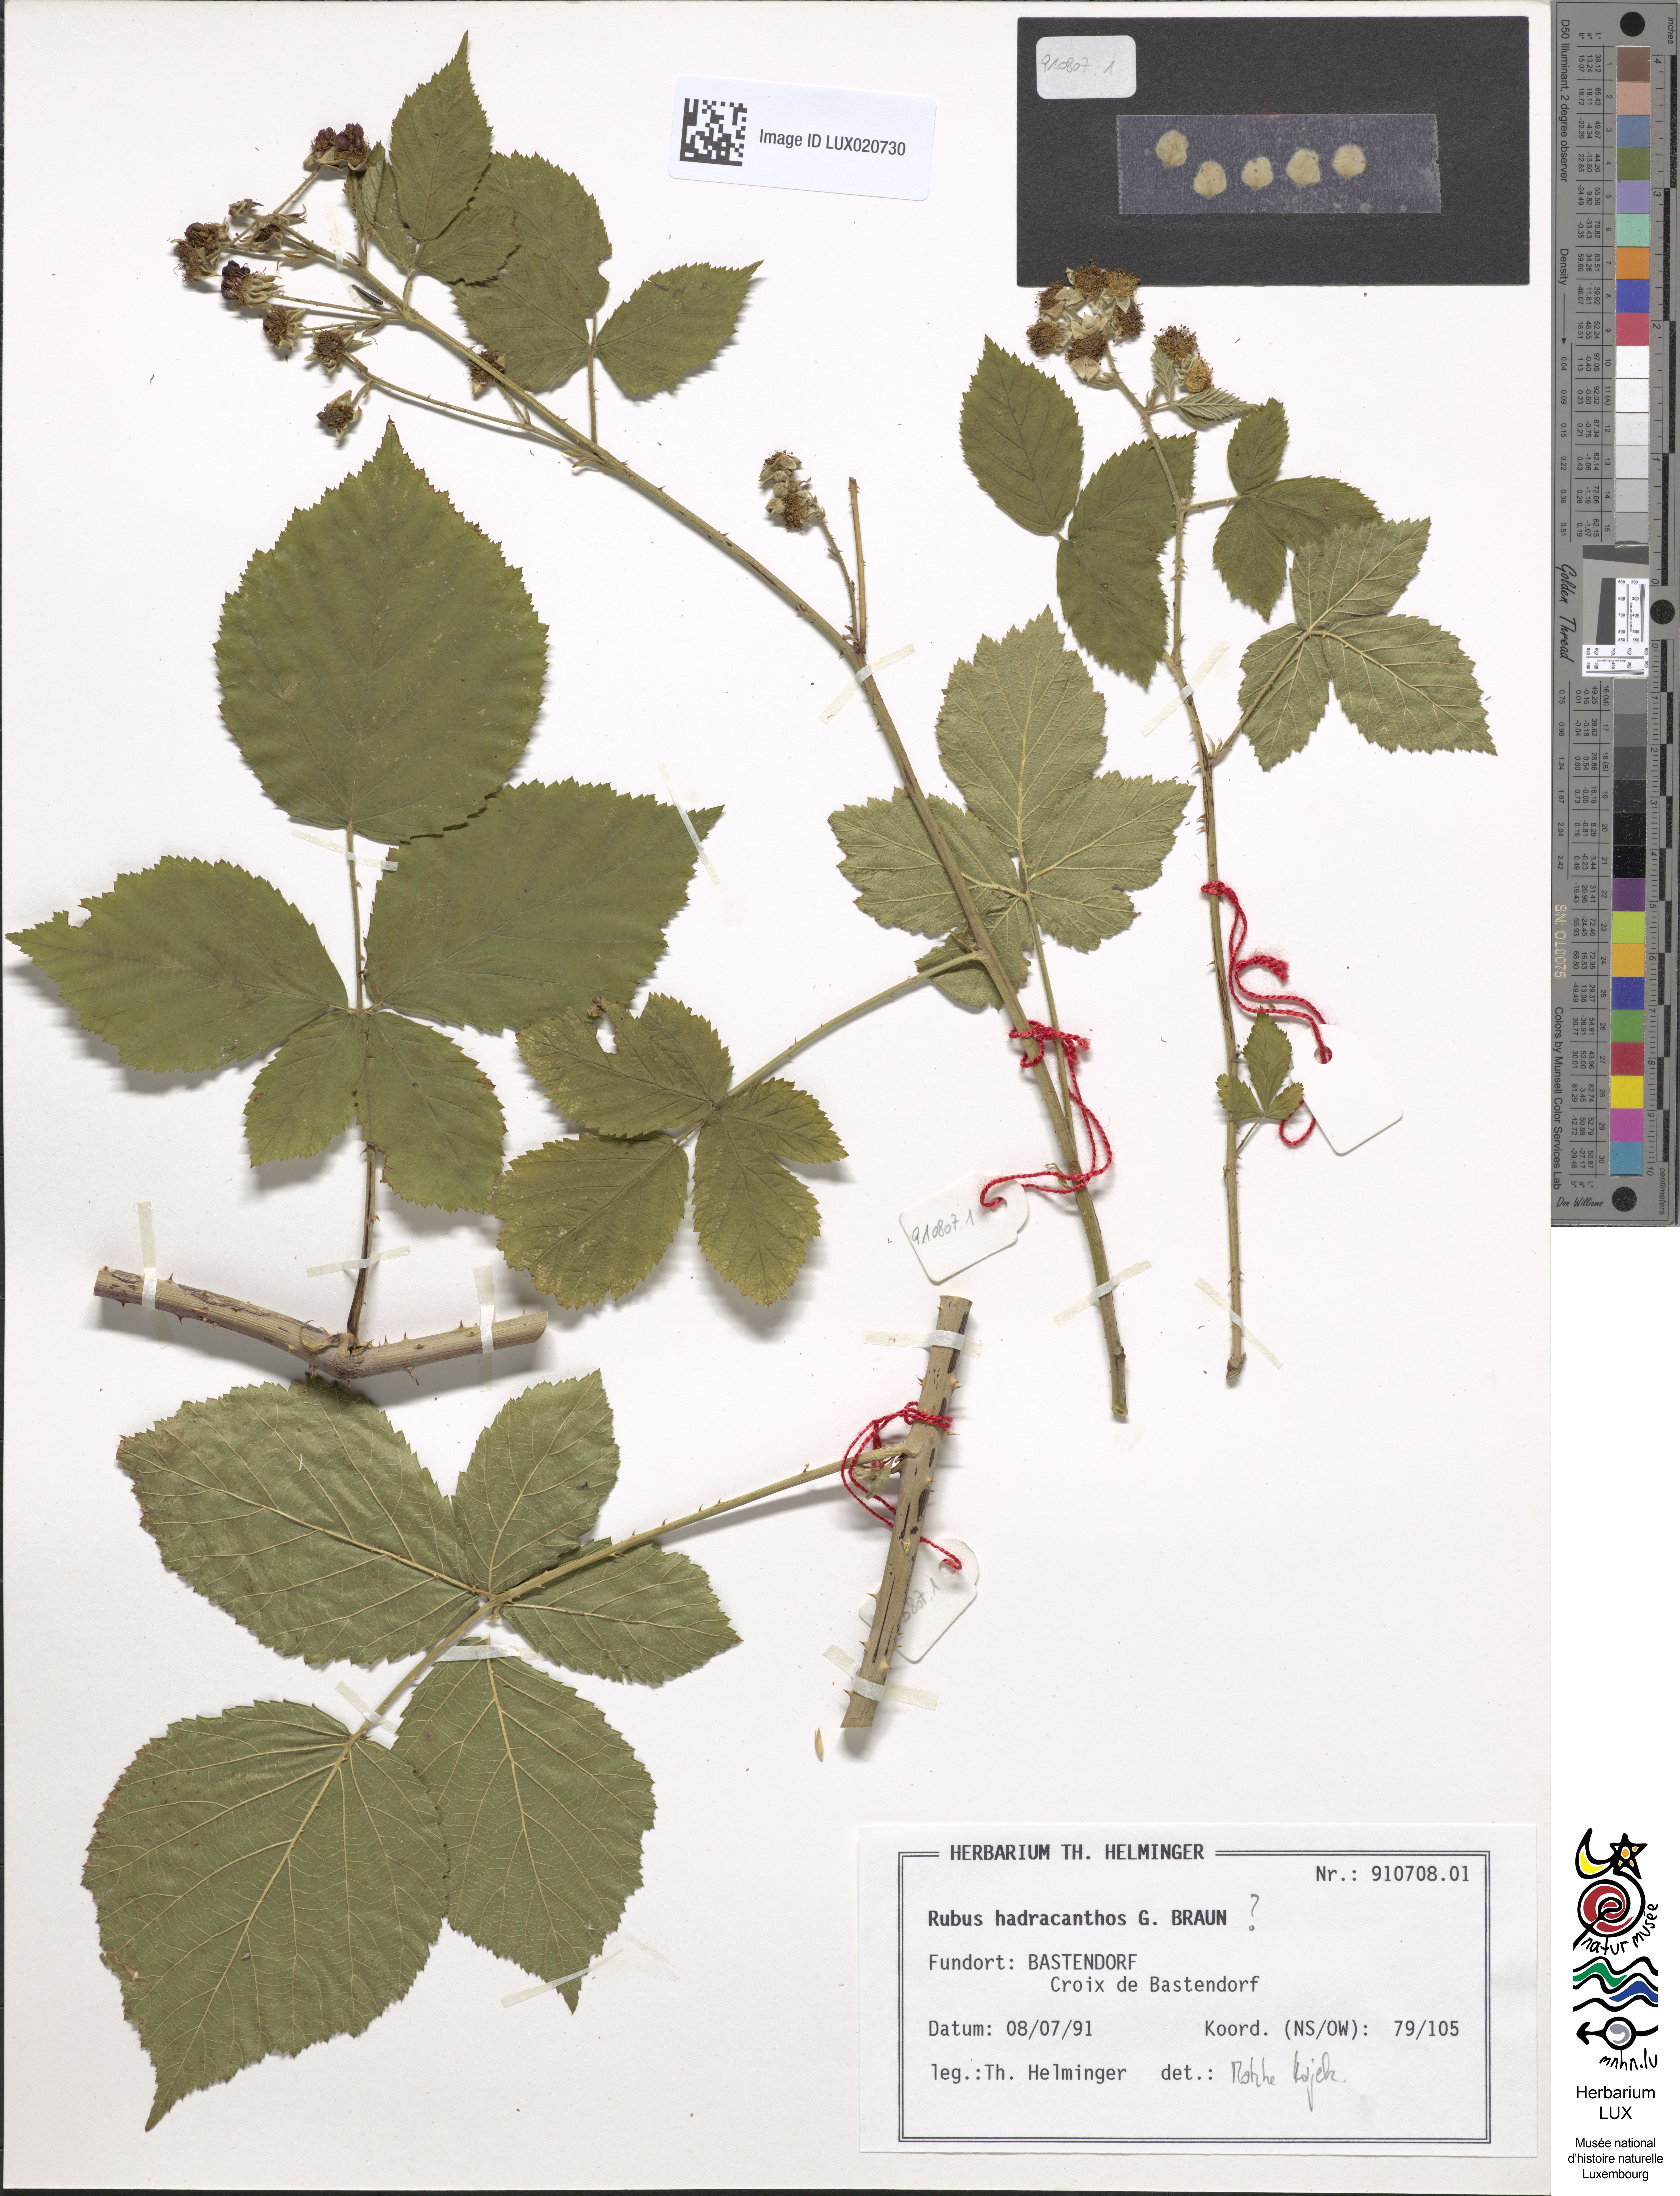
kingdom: Plantae
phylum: Tracheophyta
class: Magnoliopsida
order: Rosales
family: Rosaceae
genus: Rubus
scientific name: Rubus hadracanthos
